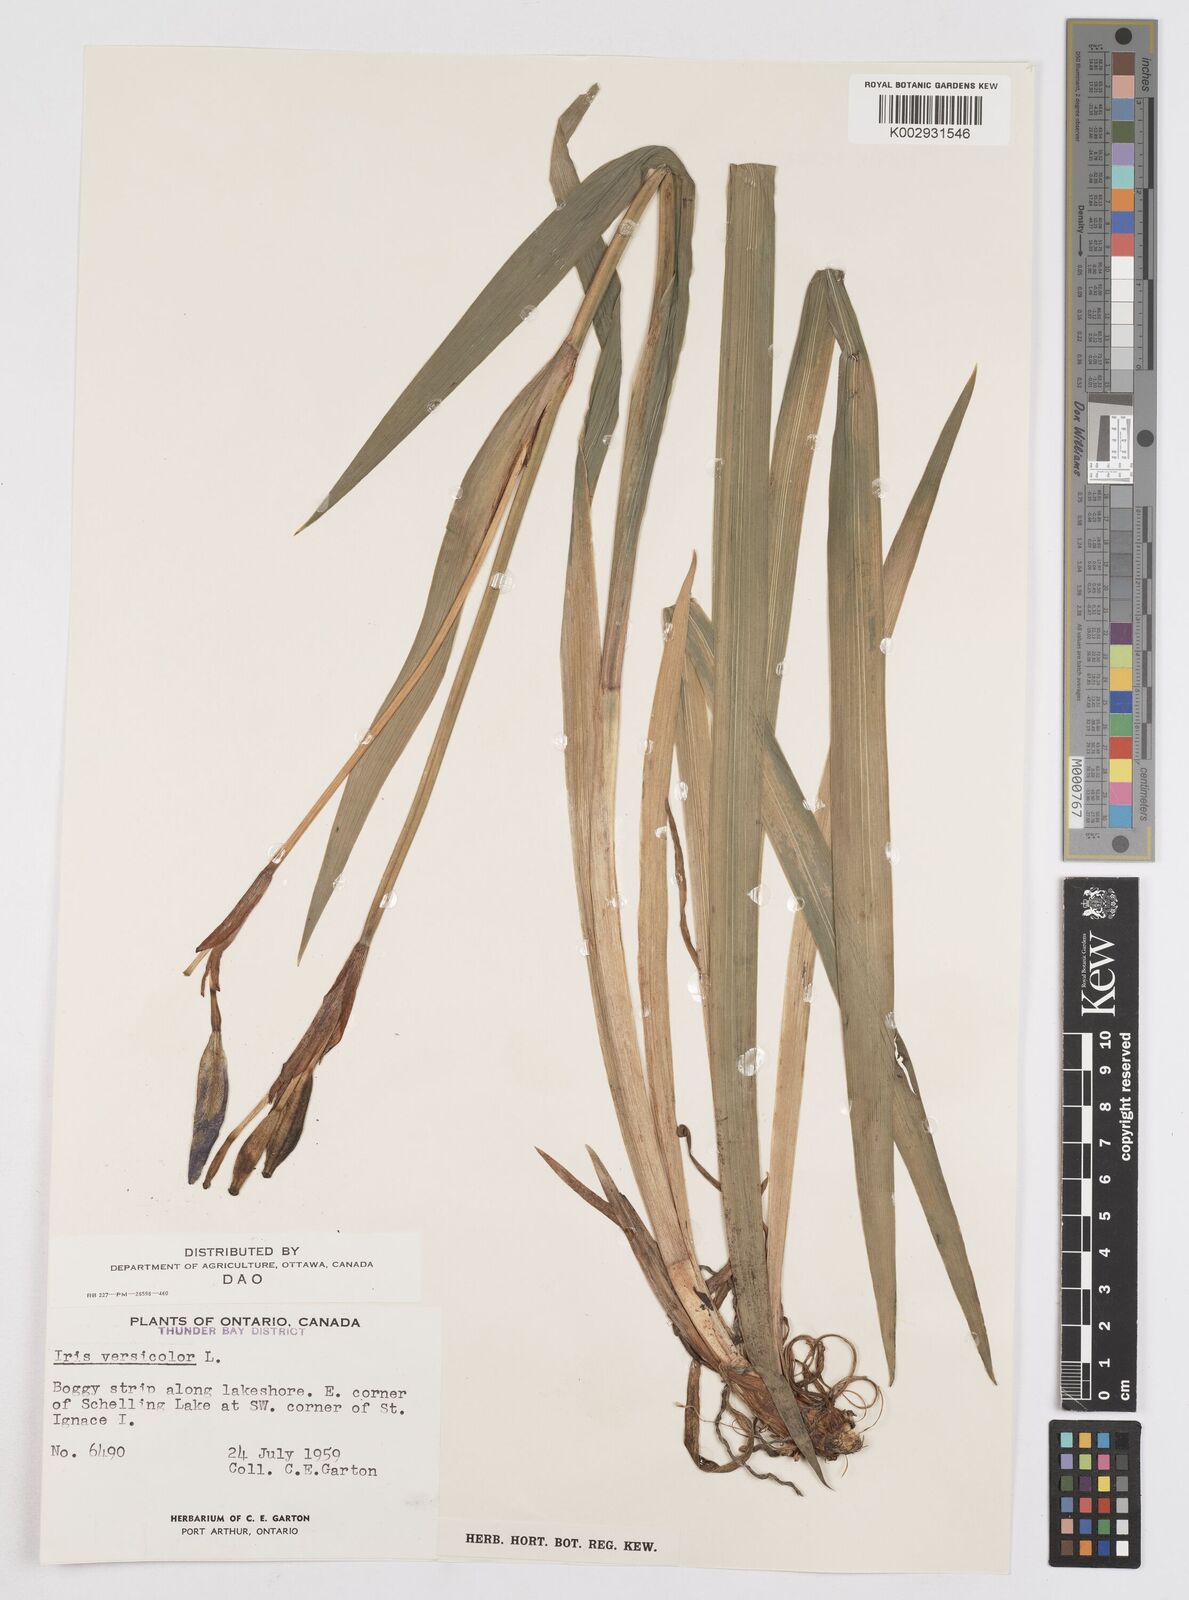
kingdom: Plantae
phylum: Tracheophyta
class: Liliopsida
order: Asparagales
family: Iridaceae
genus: Iris
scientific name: Iris versicolor
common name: Purple iris
